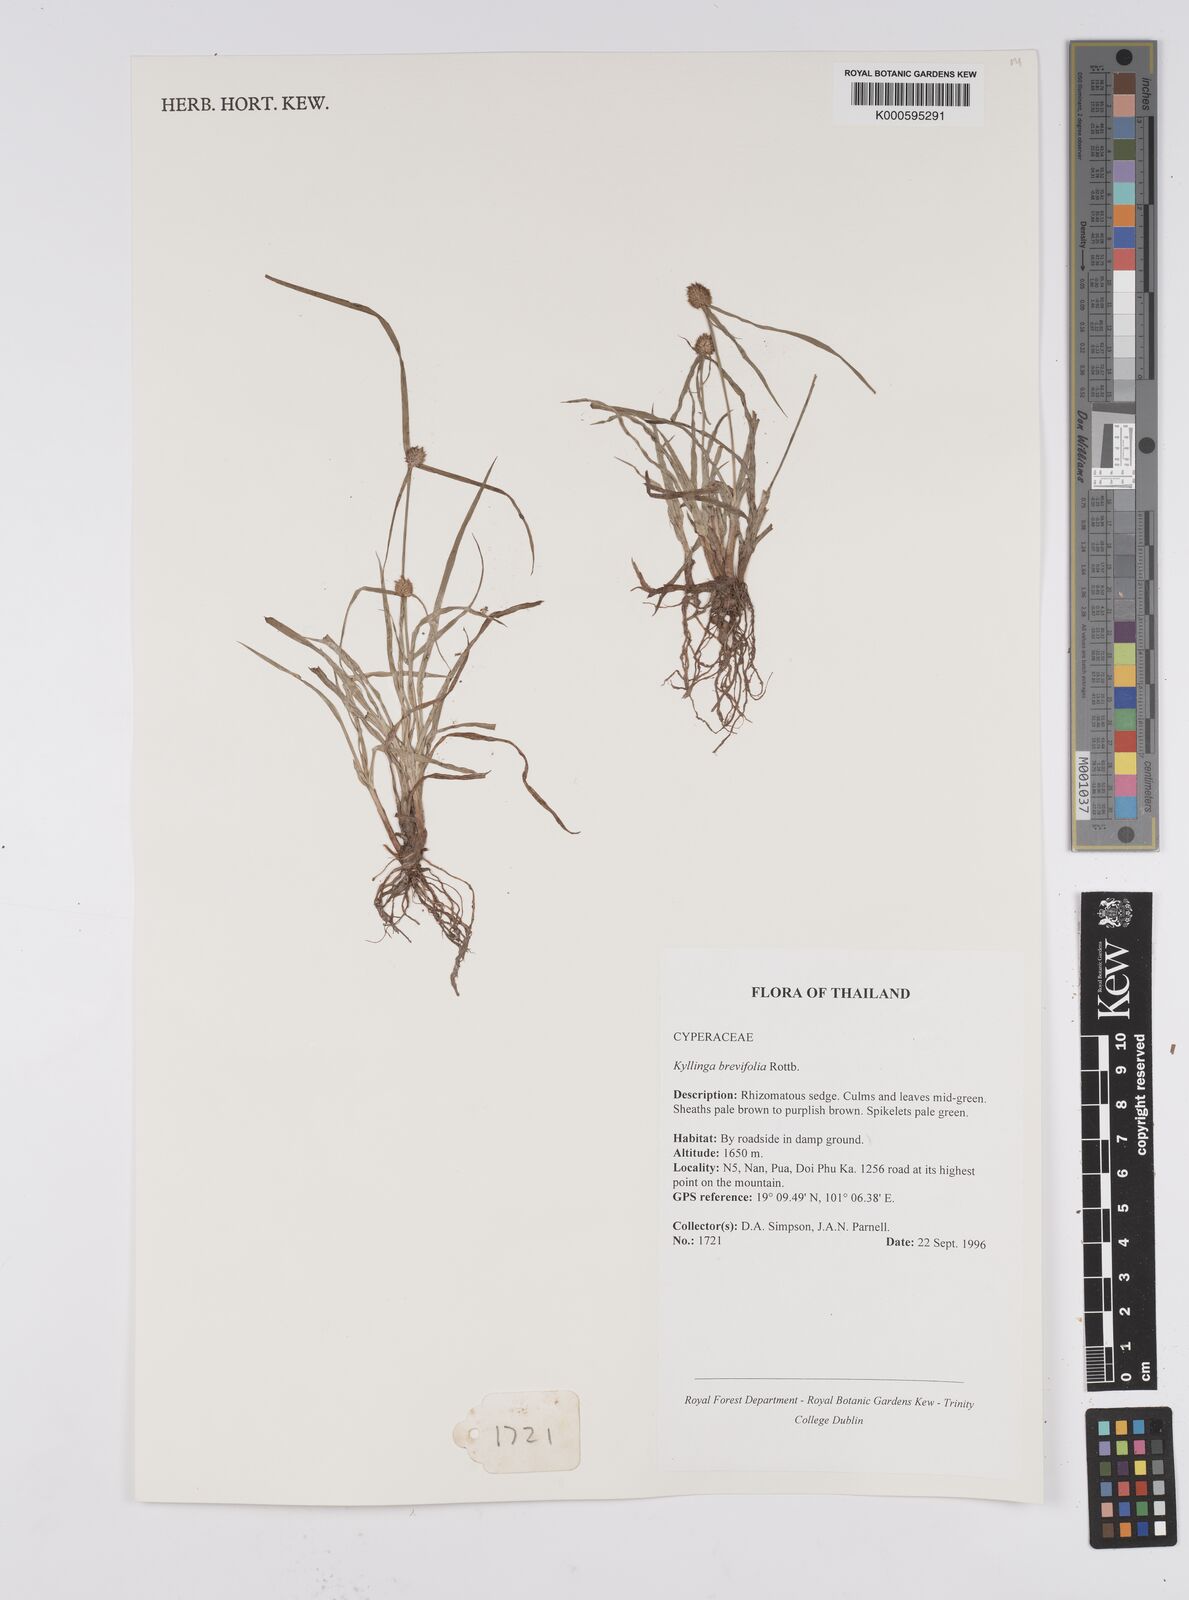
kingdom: Plantae
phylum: Tracheophyta
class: Liliopsida
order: Poales
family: Cyperaceae
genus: Cyperus
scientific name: Cyperus brevifolius
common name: Globe kyllinga
